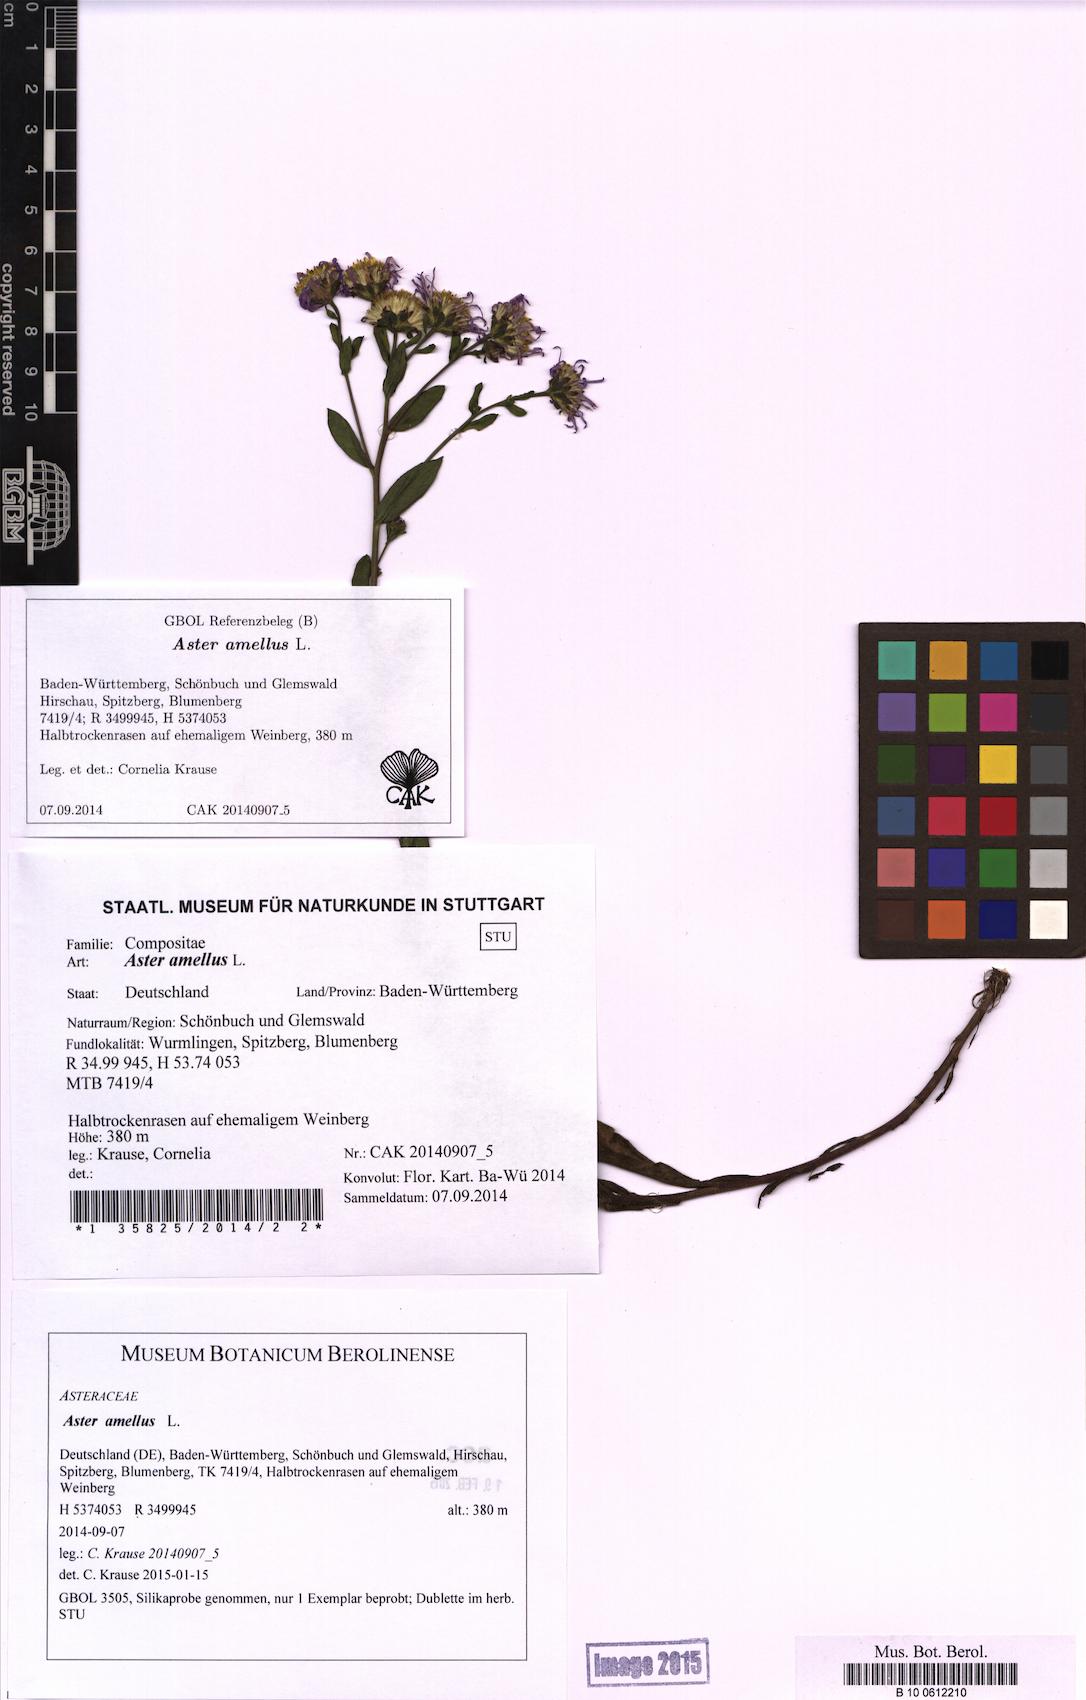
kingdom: Plantae
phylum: Tracheophyta
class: Magnoliopsida
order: Asterales
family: Asteraceae
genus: Aster
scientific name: Aster amellus
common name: European michaelmas daisy
